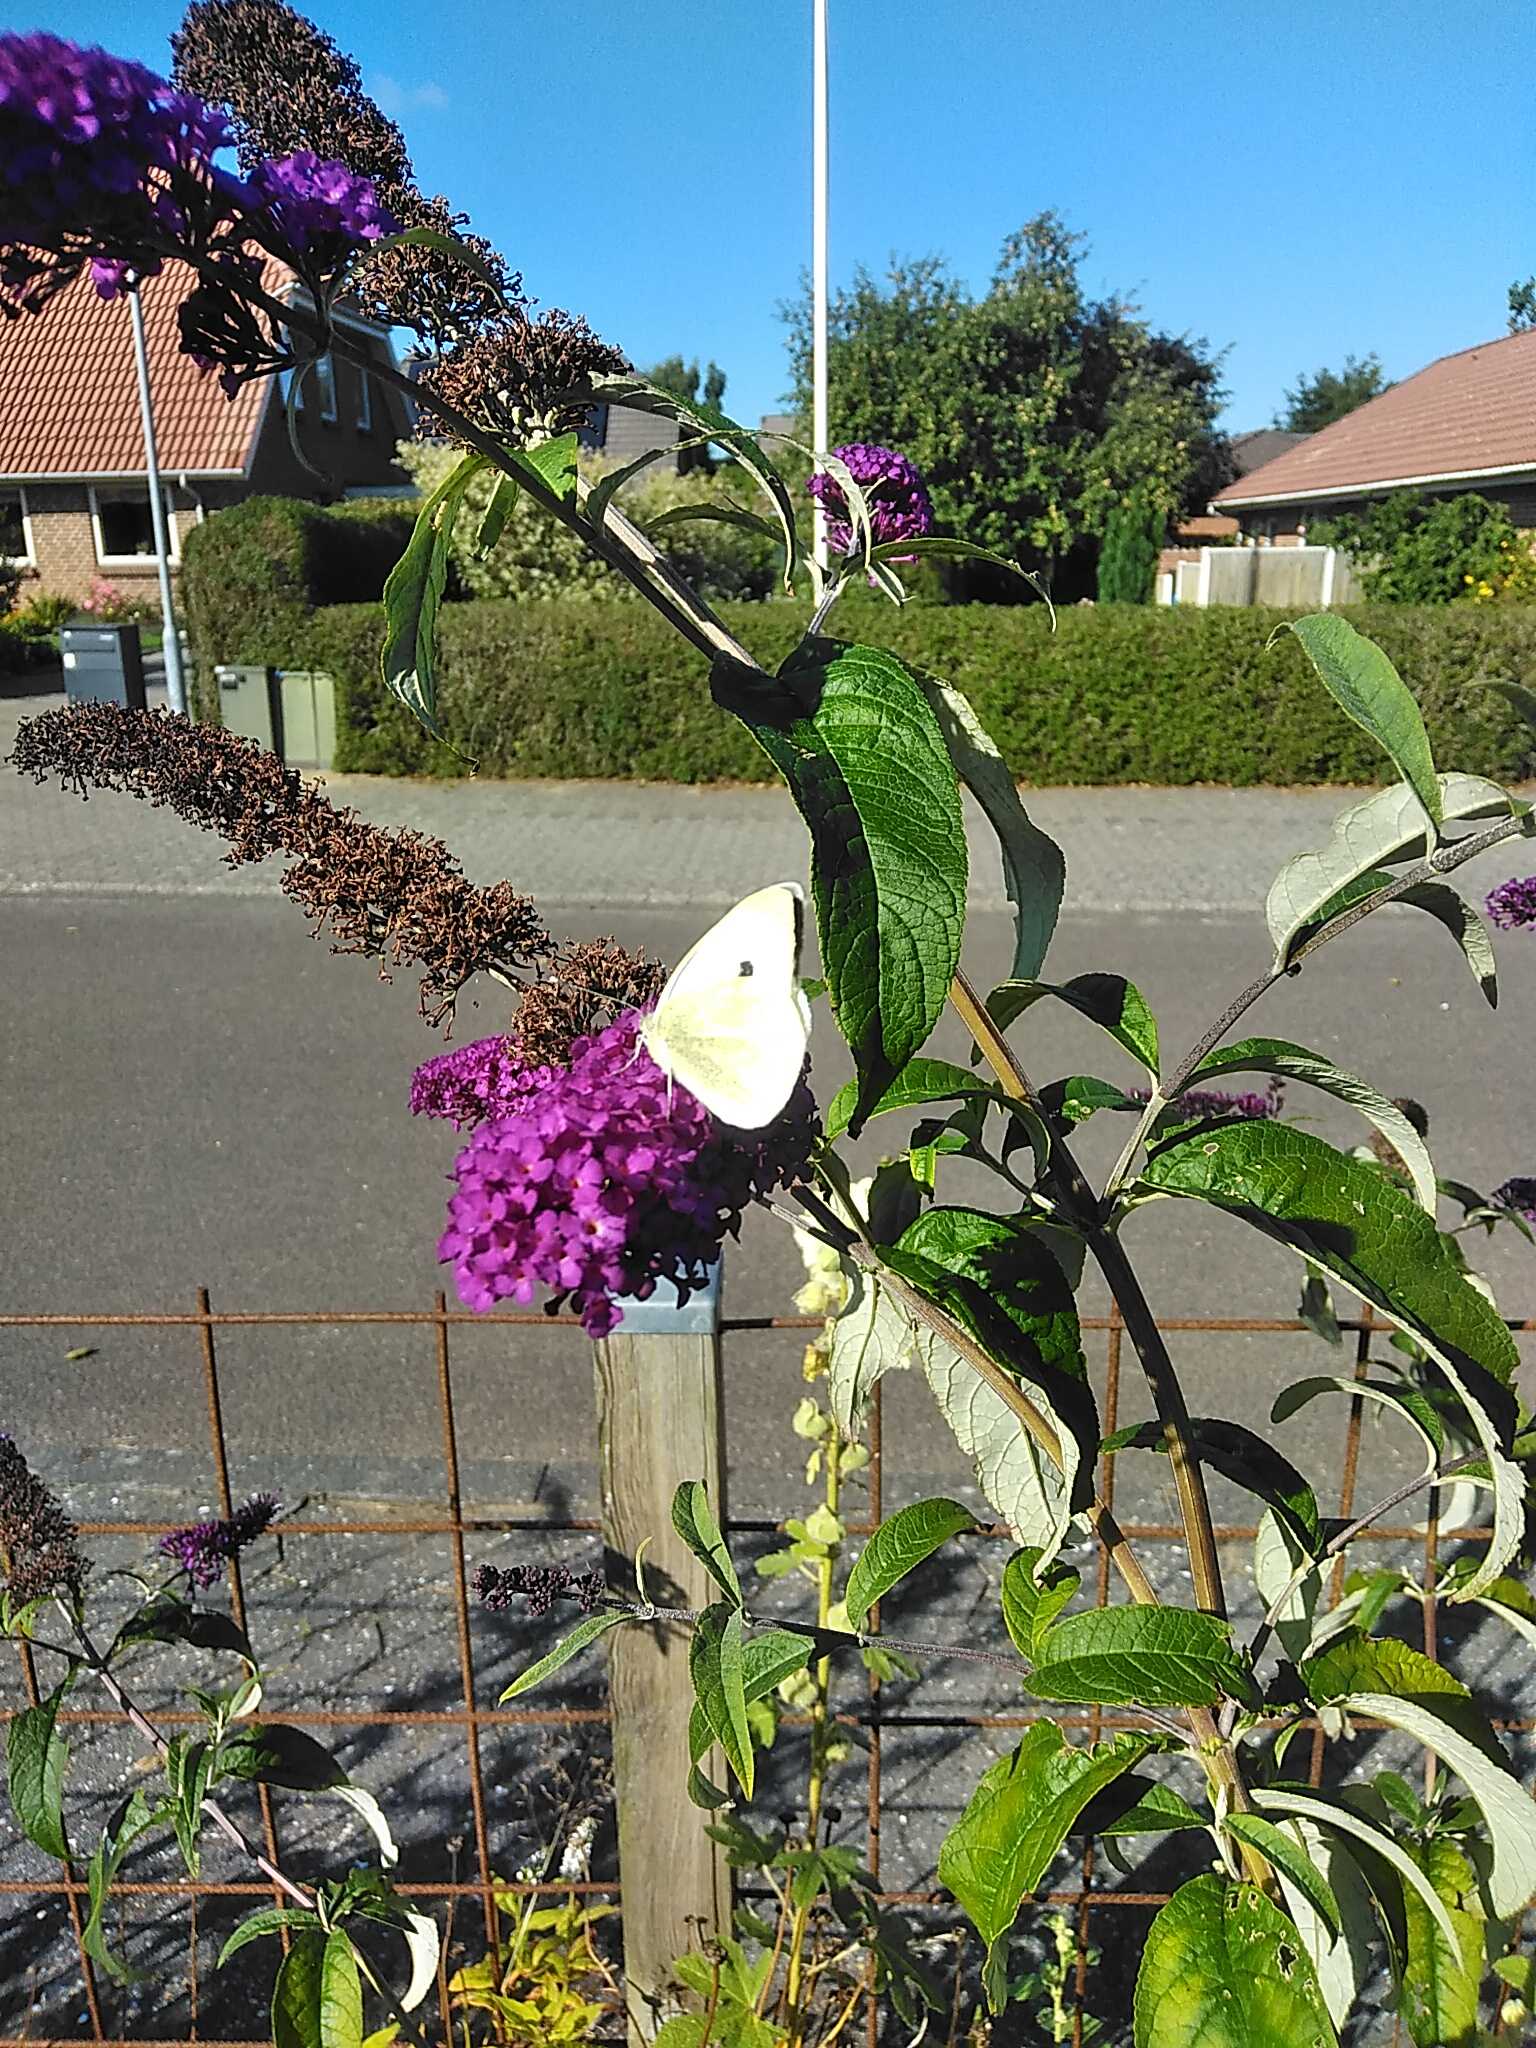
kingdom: Animalia
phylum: Arthropoda
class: Insecta
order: Lepidoptera
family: Pieridae
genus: Pieris
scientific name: Pieris brassicae
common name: Stor kålsommerfugl
